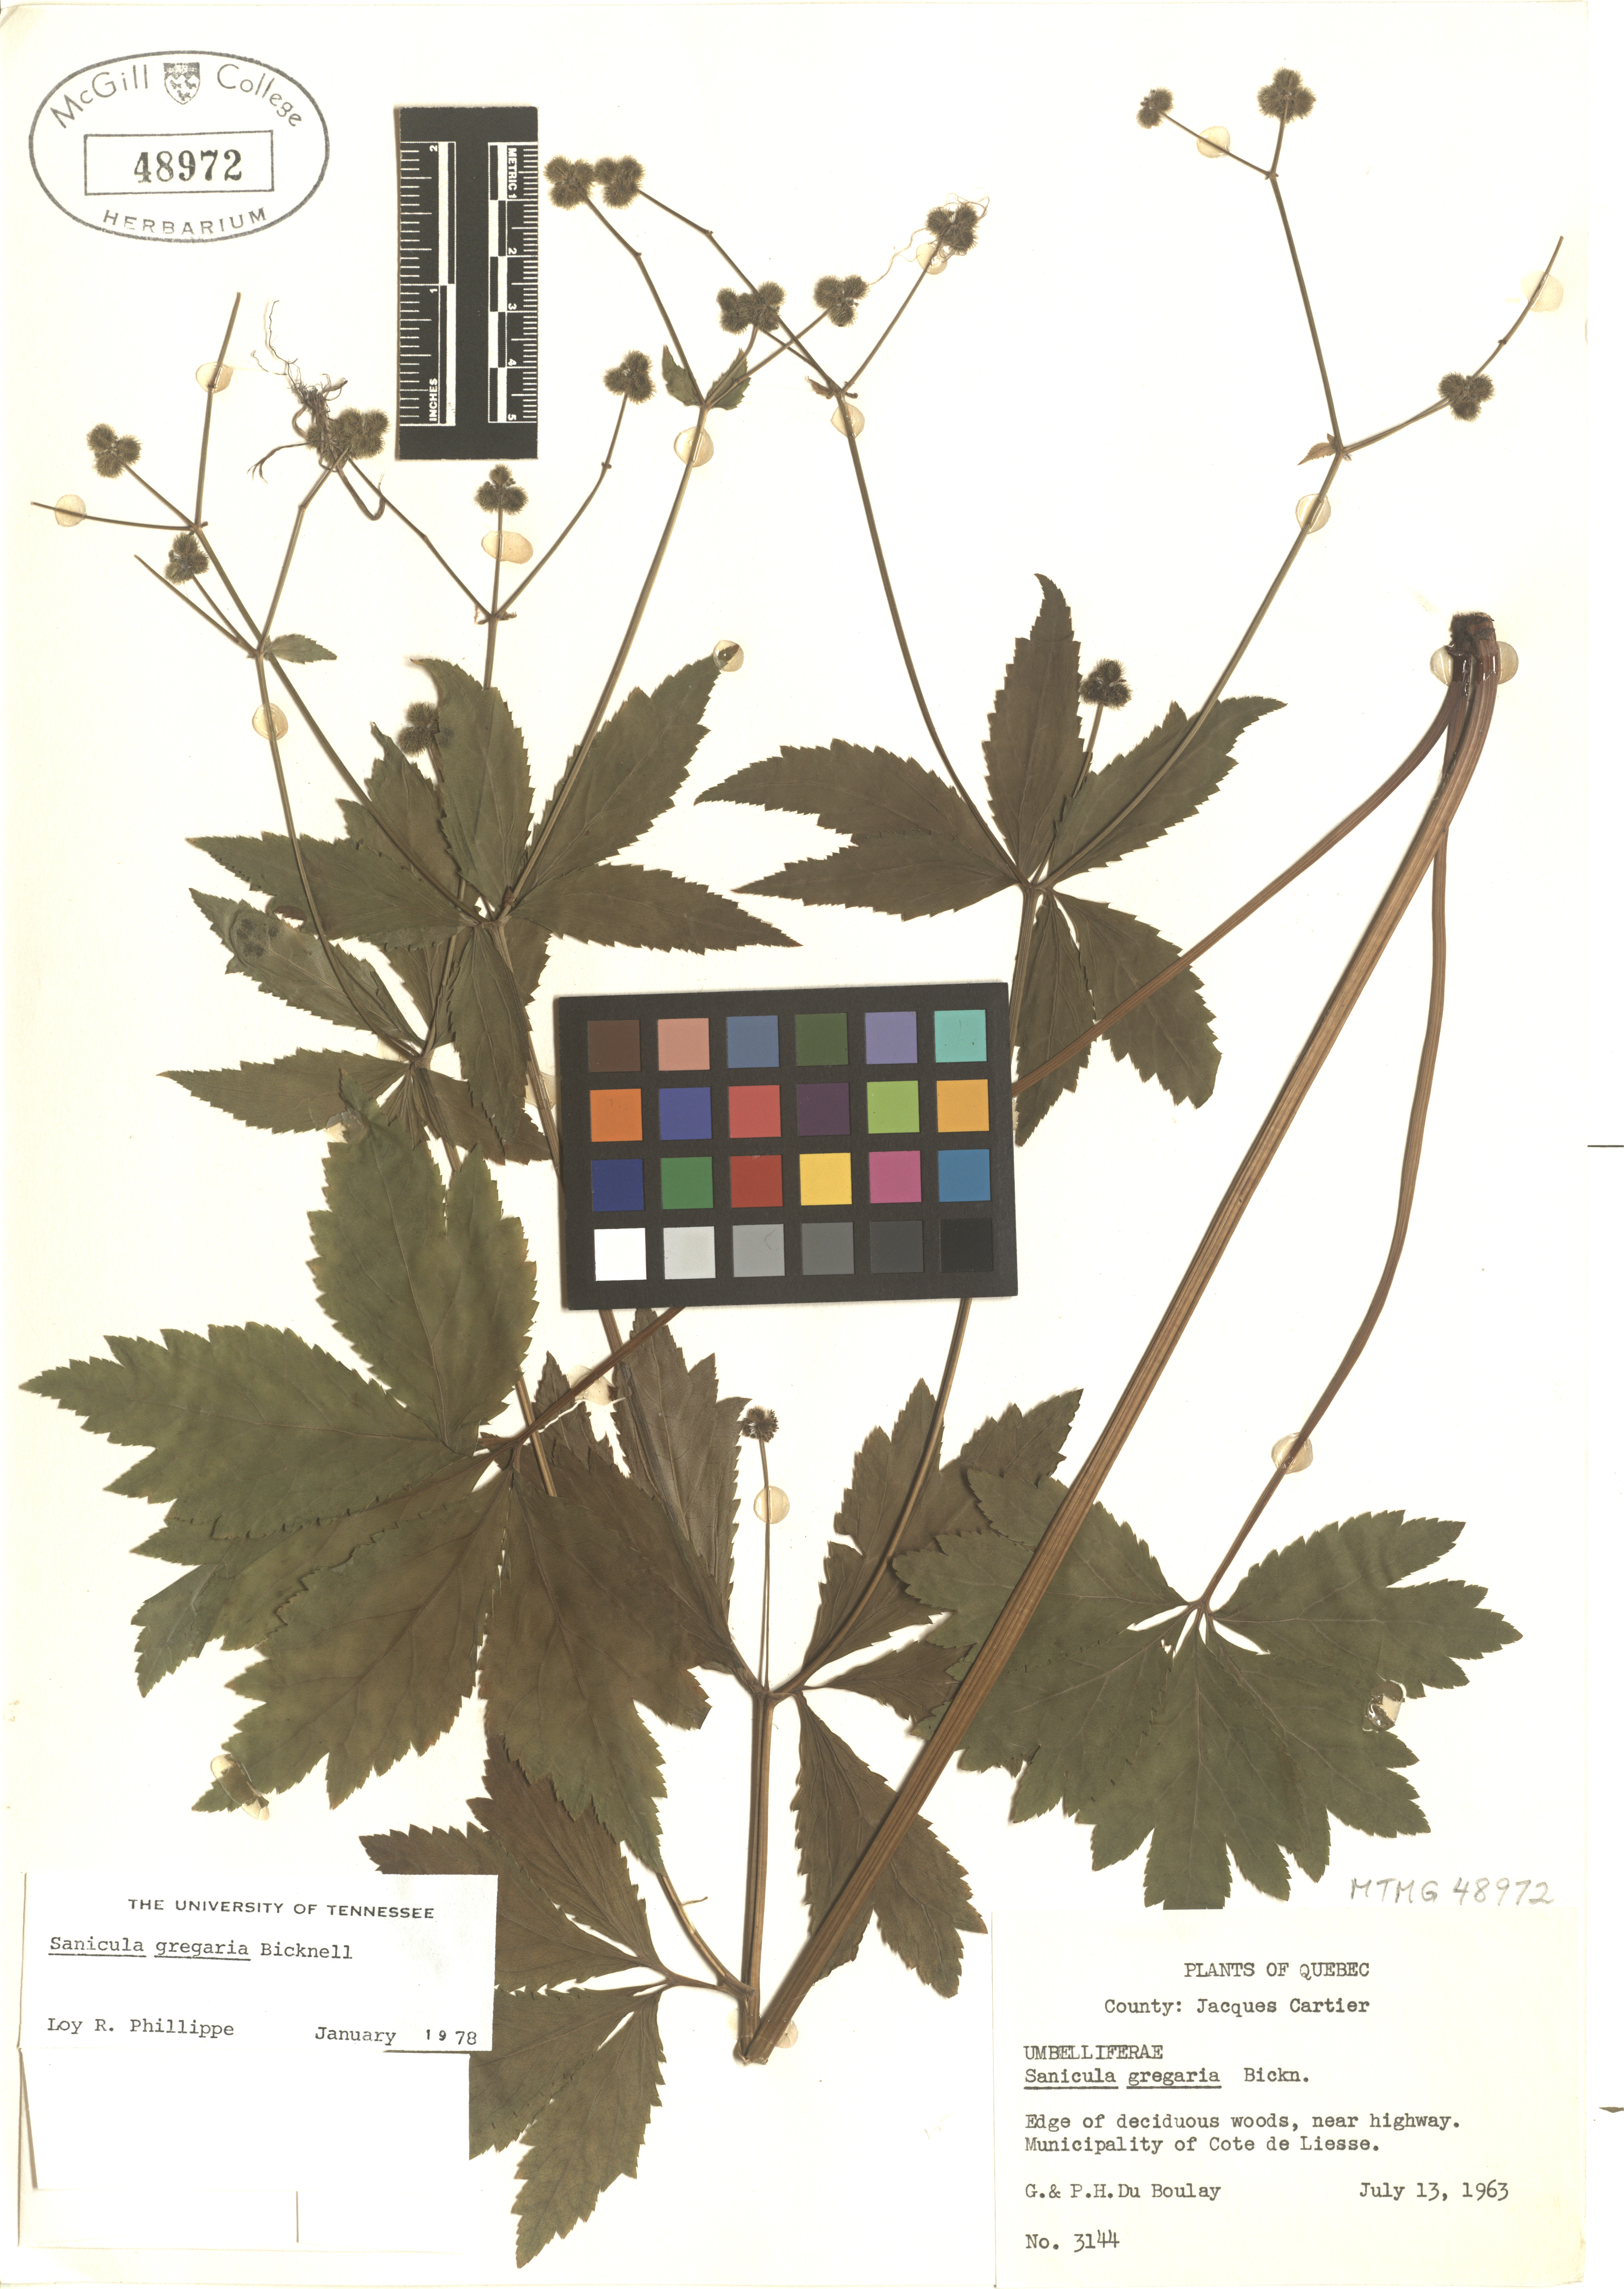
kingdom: Plantae
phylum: Tracheophyta
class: Magnoliopsida
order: Apiales
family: Apiaceae
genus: Sanicula
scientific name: Sanicula odorata
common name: Cluster sanicle
